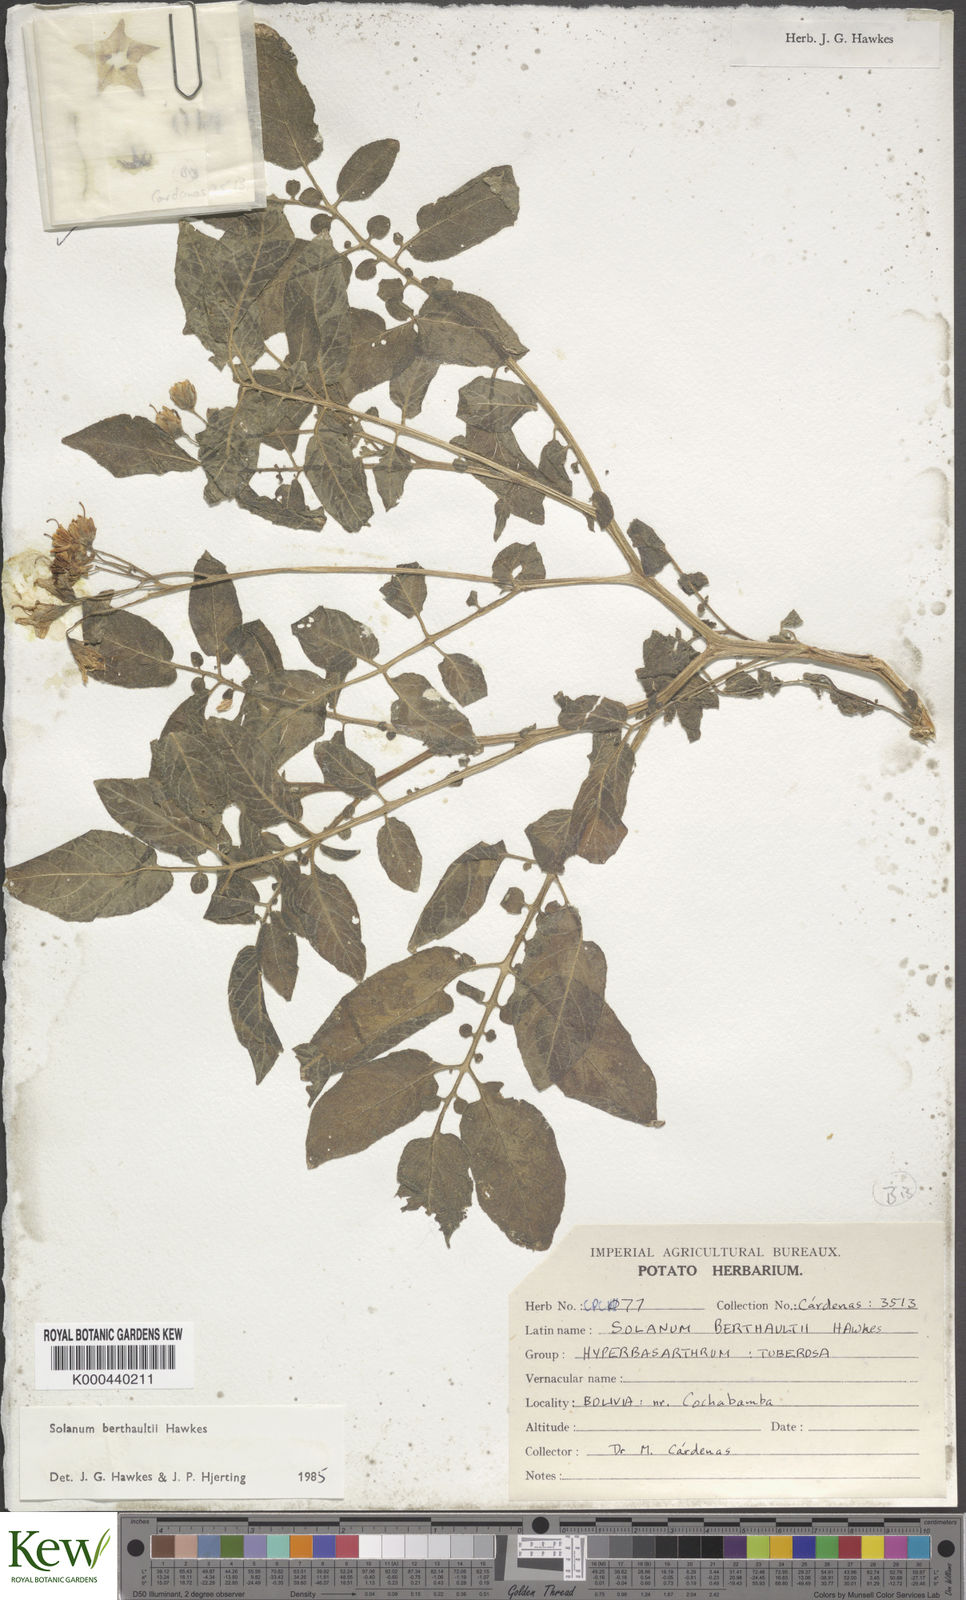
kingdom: Plantae
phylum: Tracheophyta
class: Magnoliopsida
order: Solanales
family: Solanaceae
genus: Solanum
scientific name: Solanum berthaultii
